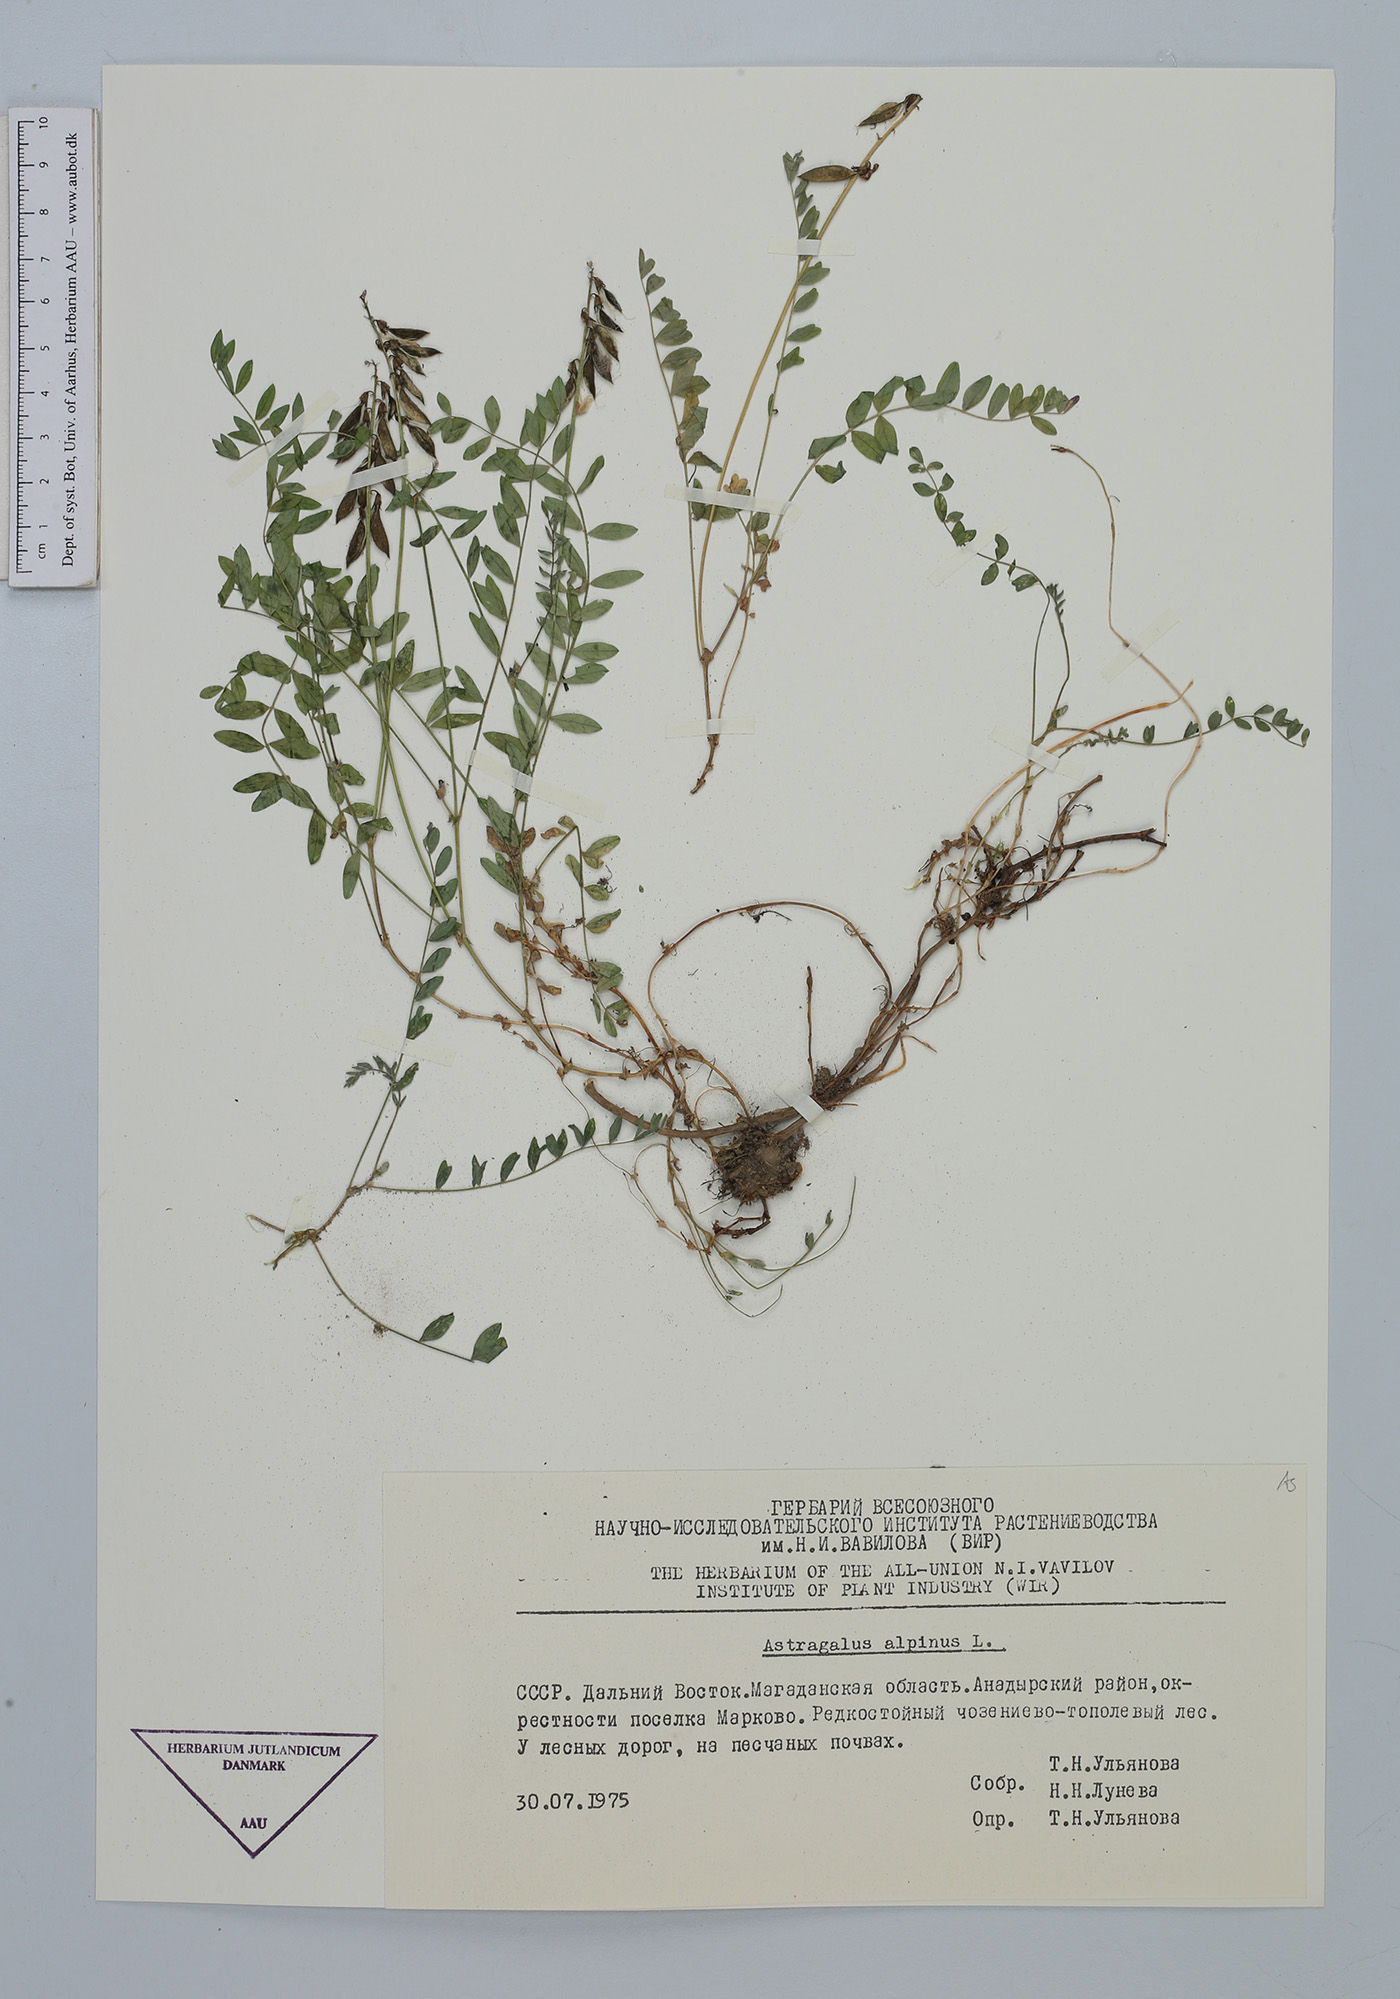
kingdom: Plantae
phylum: Tracheophyta
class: Magnoliopsida
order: Fabales
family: Fabaceae
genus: Astragalus
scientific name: Astragalus alpinus
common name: Alpine milk-vetch
